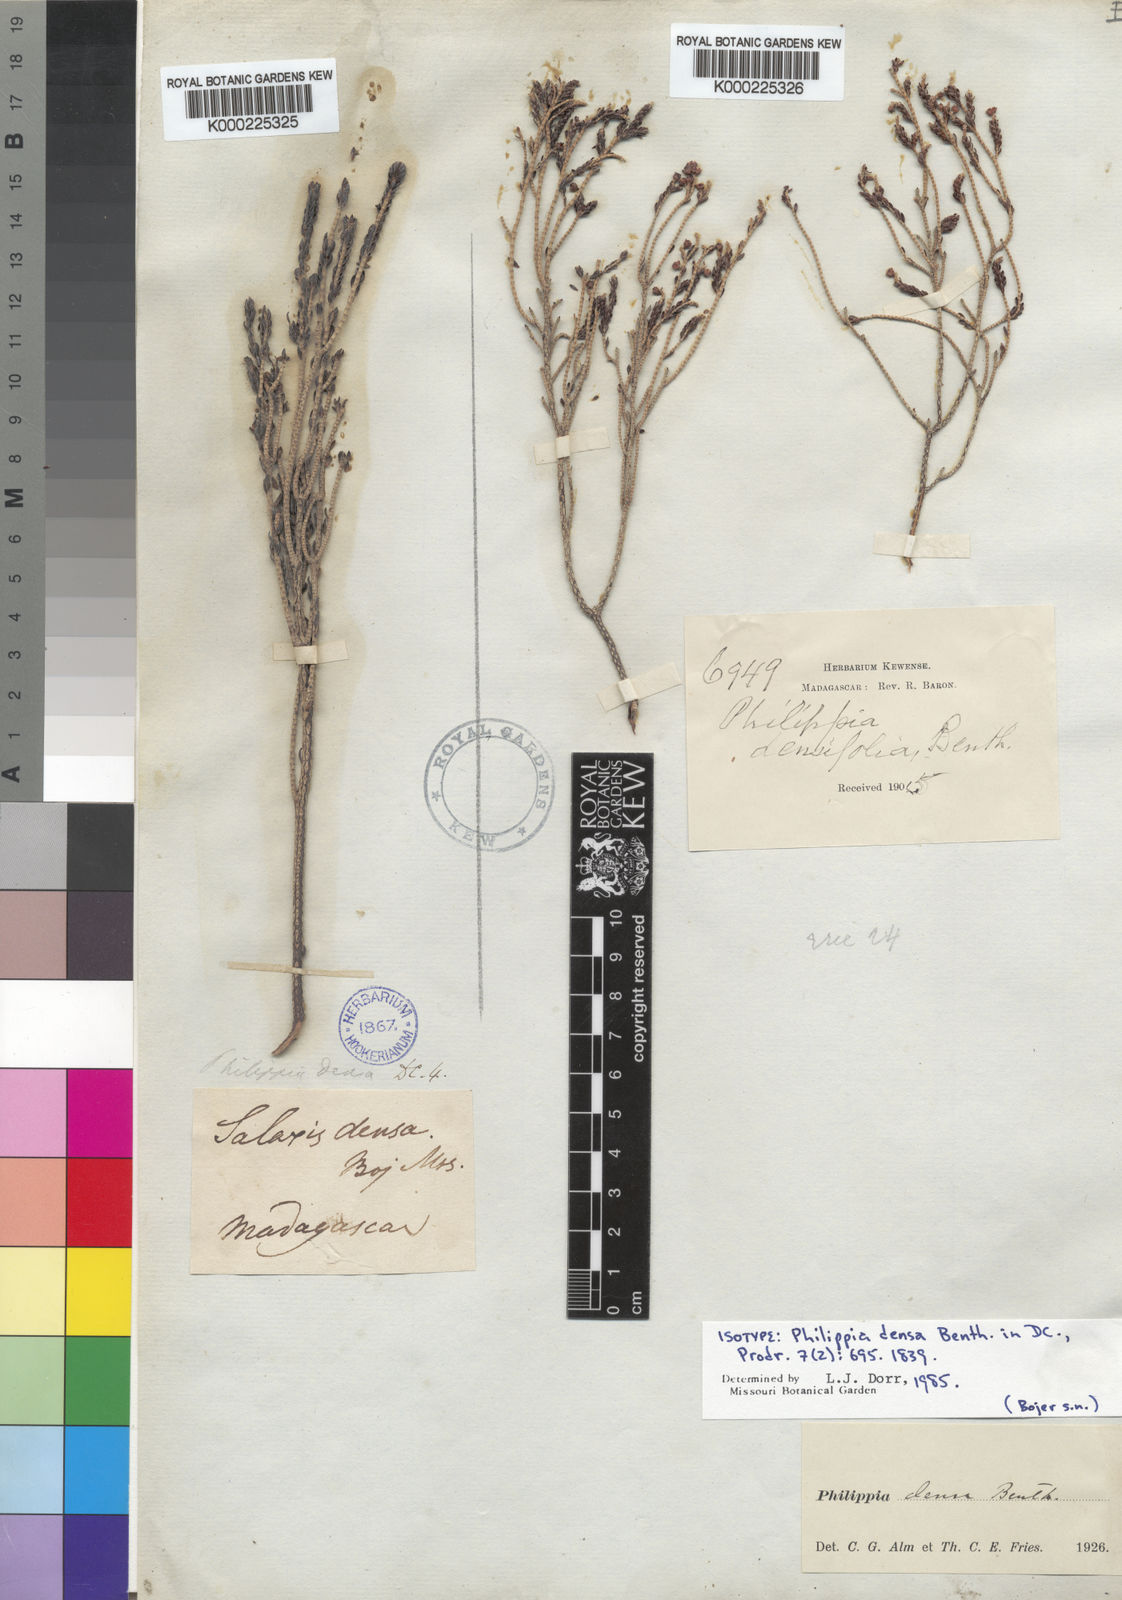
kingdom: Plantae
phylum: Tracheophyta
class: Magnoliopsida
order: Ericales
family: Ericaceae
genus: Erica
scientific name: Erica densata
